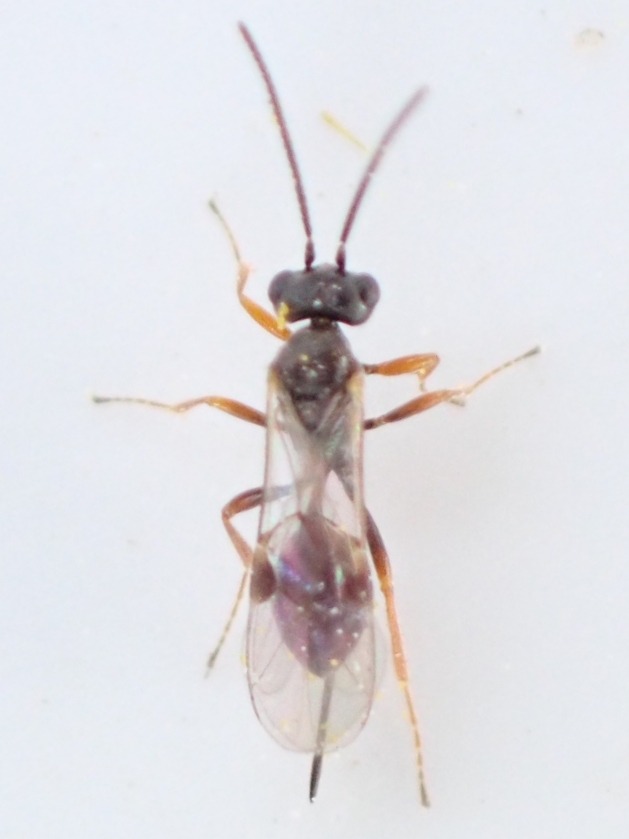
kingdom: Animalia
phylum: Arthropoda
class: Insecta
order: Hymenoptera
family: Ichneumonidae
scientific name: Ichneumonidae
